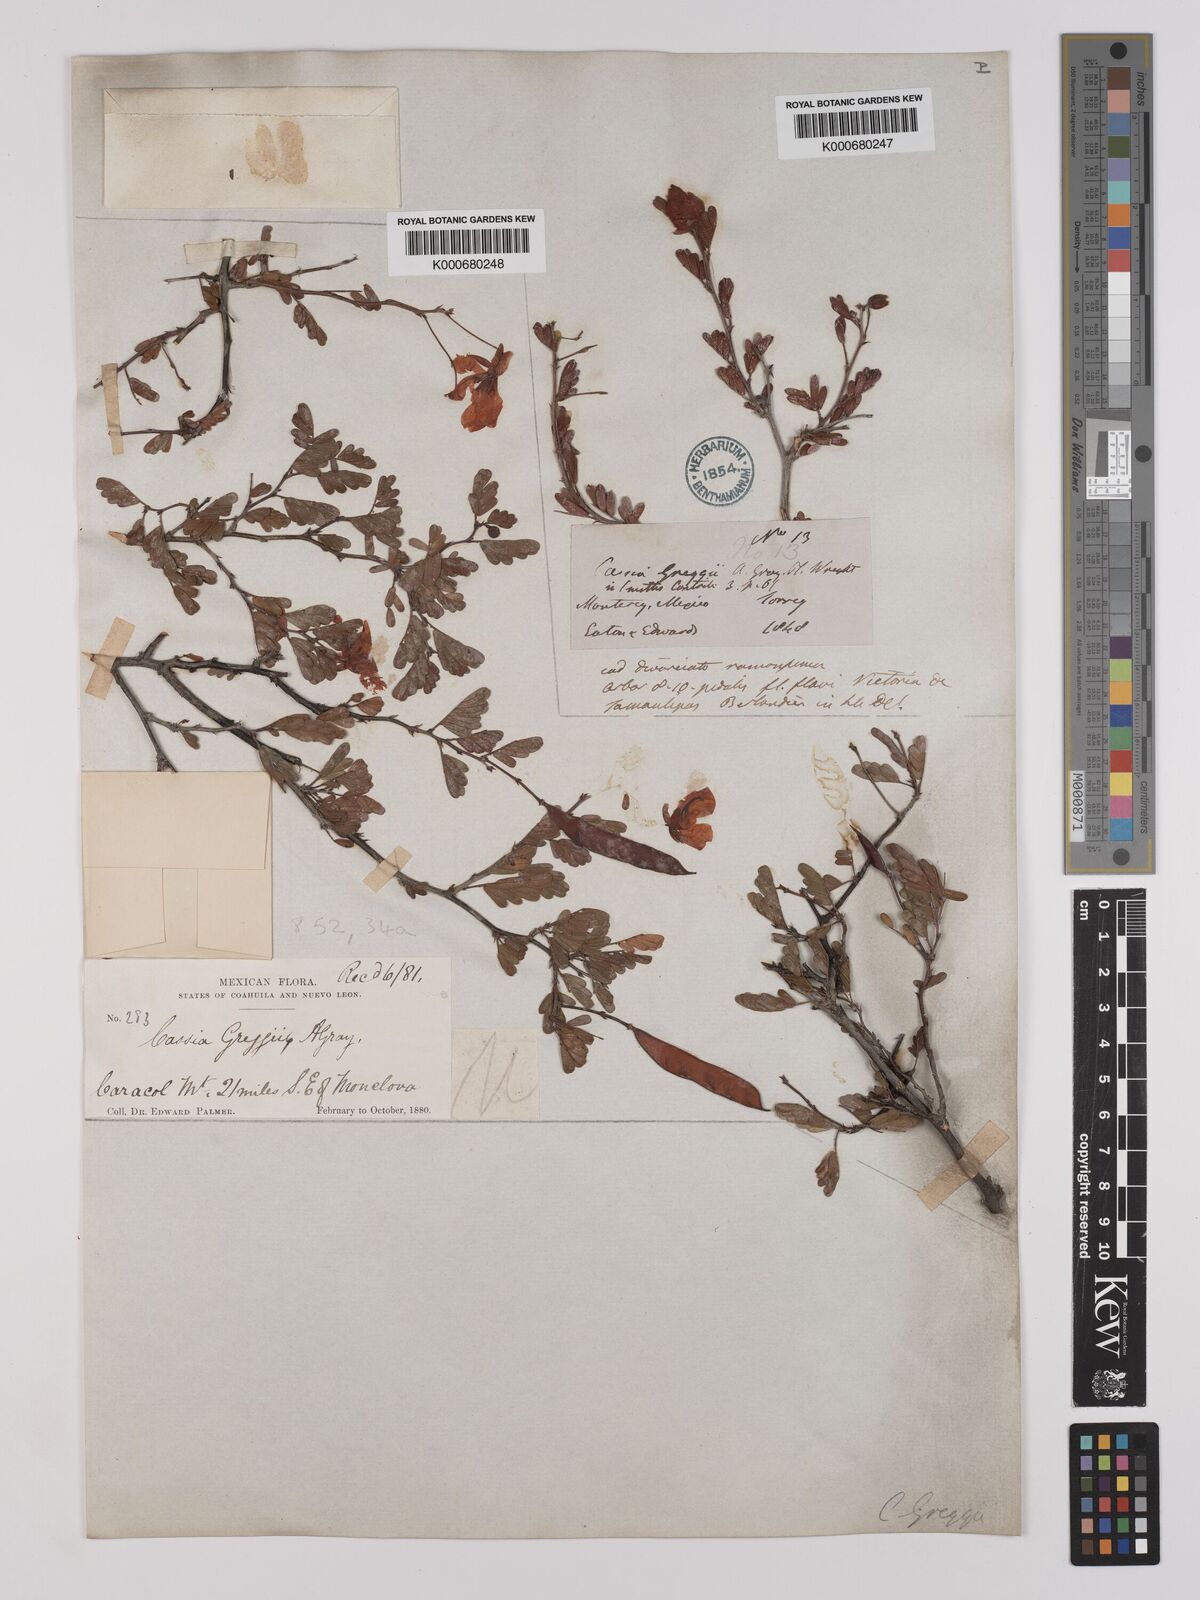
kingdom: Plantae
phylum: Tracheophyta
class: Magnoliopsida
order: Fabales
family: Fabaceae
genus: Chamaecrista
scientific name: Chamaecrista greggii
